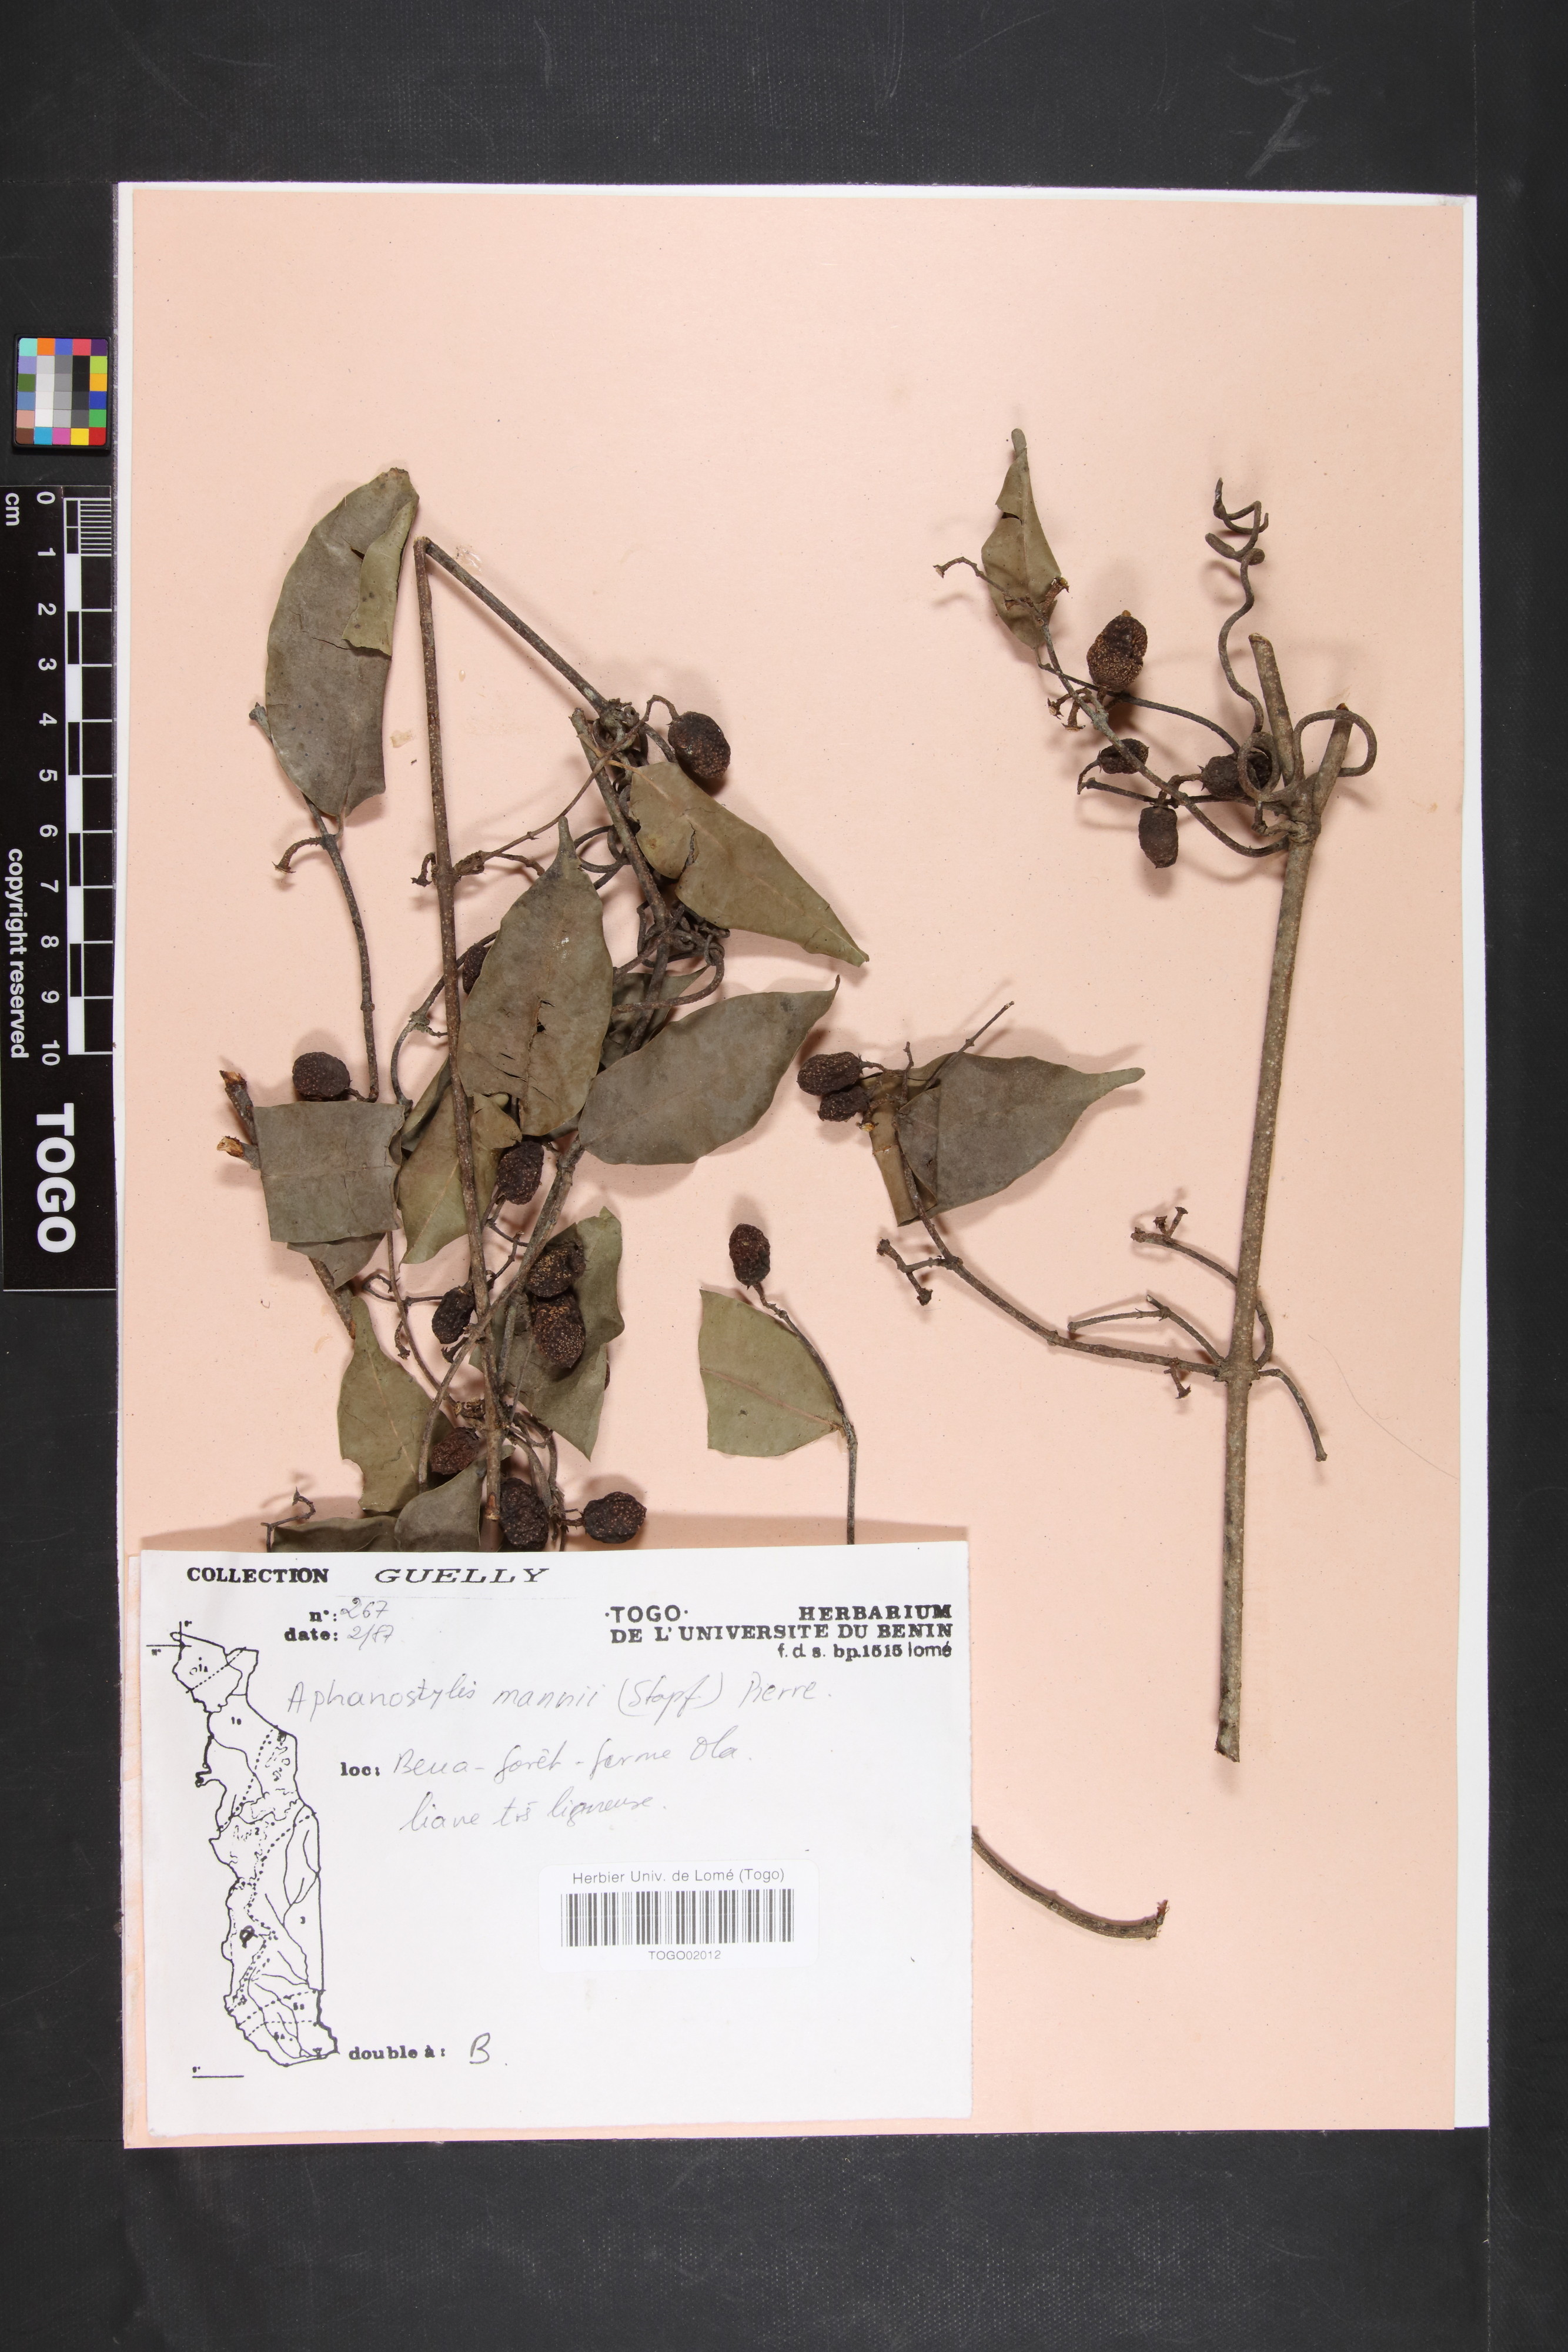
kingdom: Plantae
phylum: Tracheophyta
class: Magnoliopsida
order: Gentianales
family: Apocynaceae
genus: Landolphia
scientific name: Landolphia incerta
